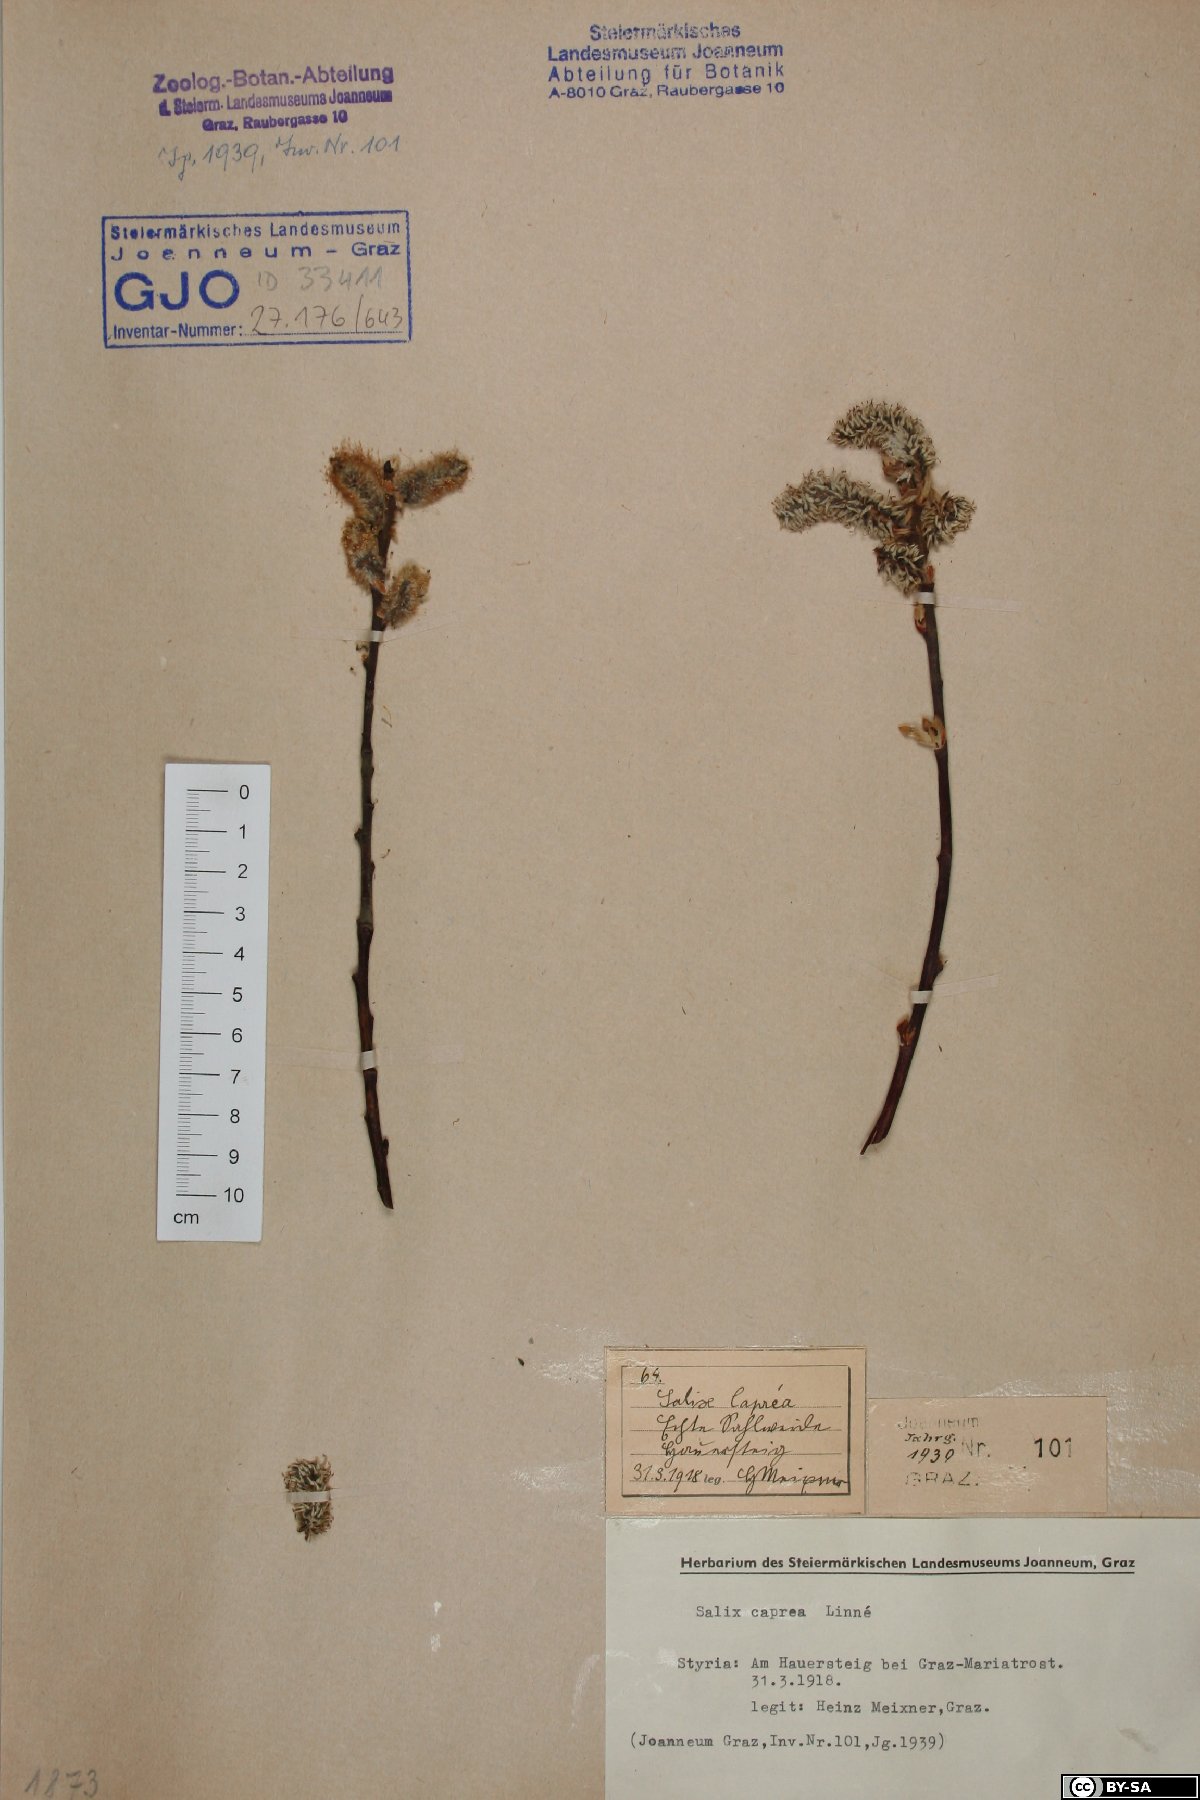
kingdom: Plantae
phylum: Tracheophyta
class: Magnoliopsida
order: Malpighiales
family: Salicaceae
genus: Salix
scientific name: Salix caprea
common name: Goat willow
